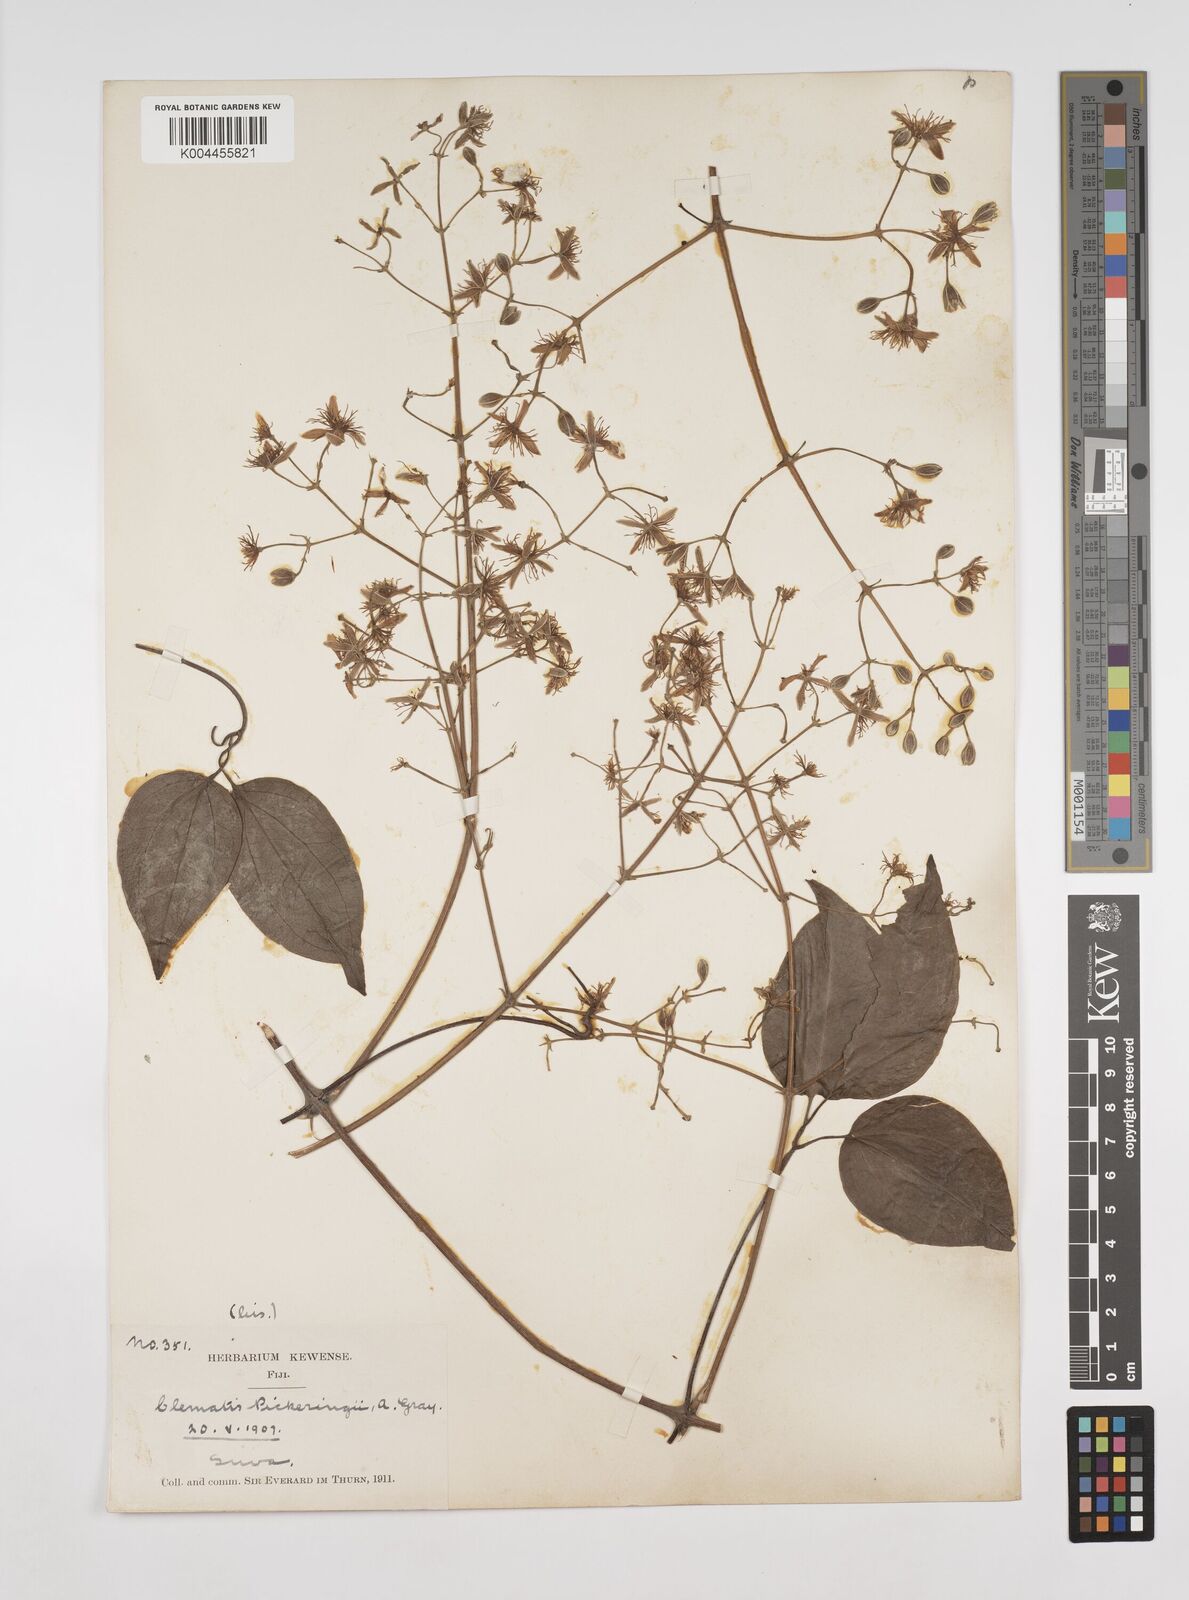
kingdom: Plantae
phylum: Tracheophyta
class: Magnoliopsida
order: Ranunculales
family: Ranunculaceae
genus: Clematis
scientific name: Clematis pickeringii
